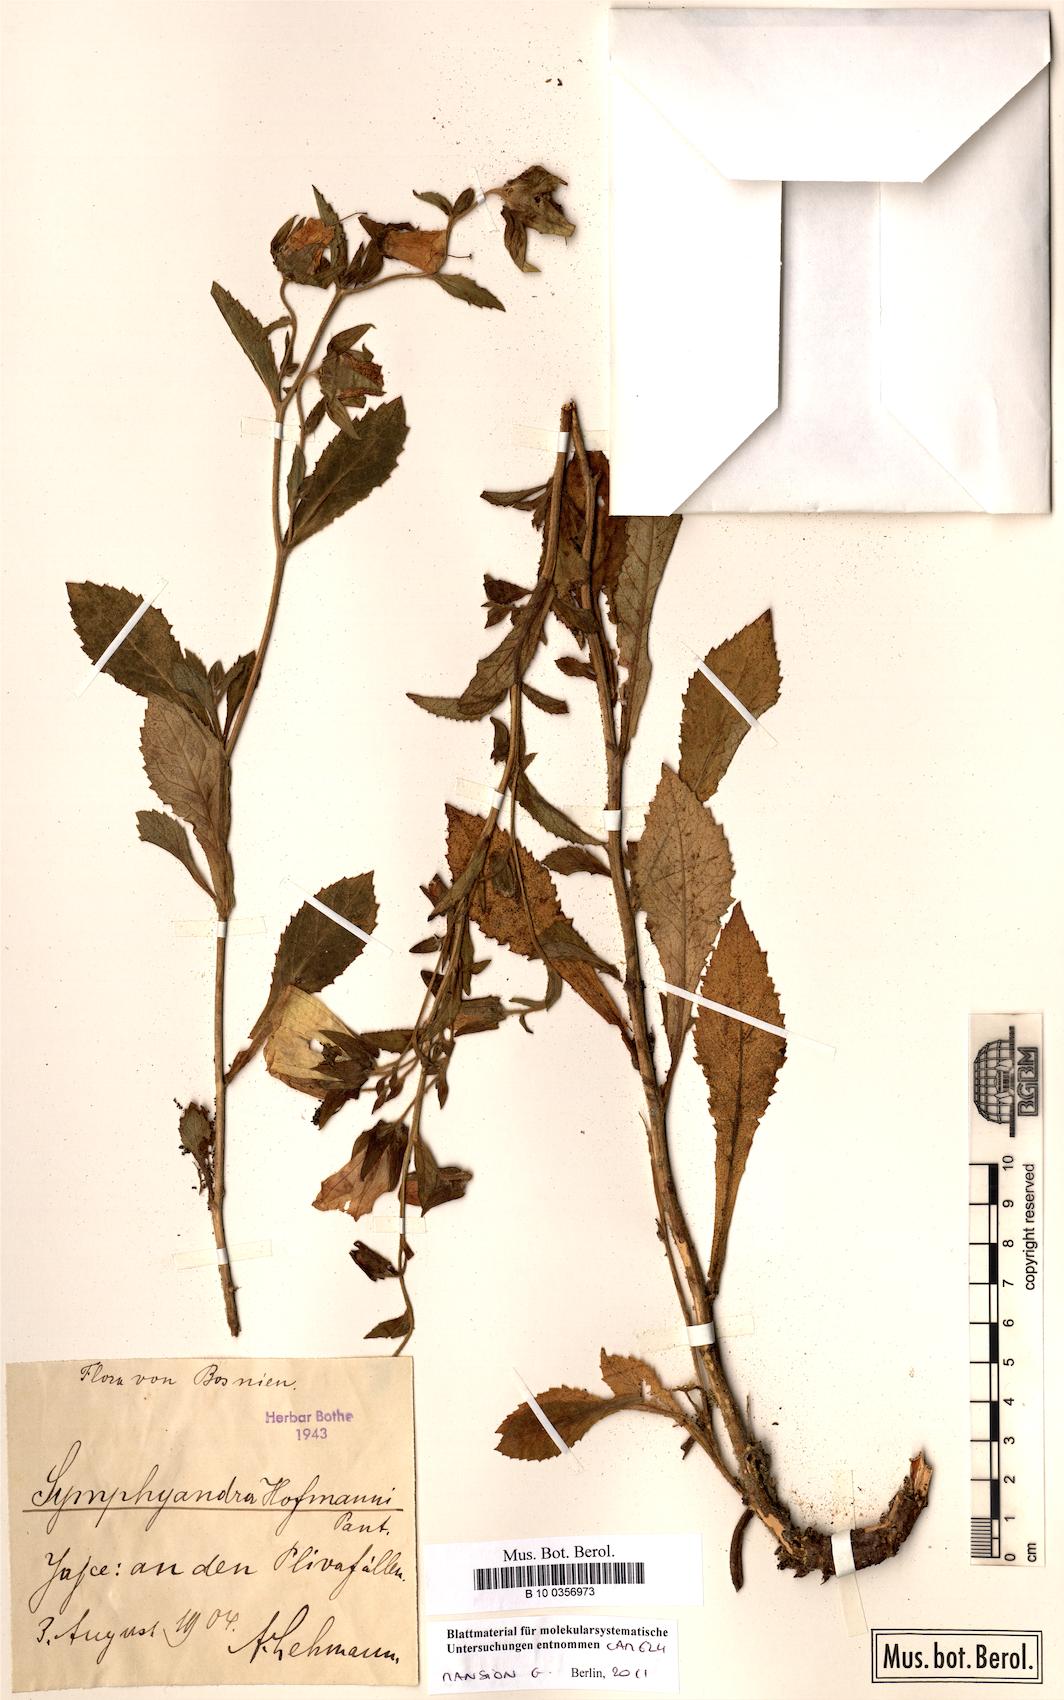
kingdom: Plantae
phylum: Tracheophyta
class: Magnoliopsida
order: Asterales
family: Campanulaceae
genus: Campanula
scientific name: Campanula hofmannii
